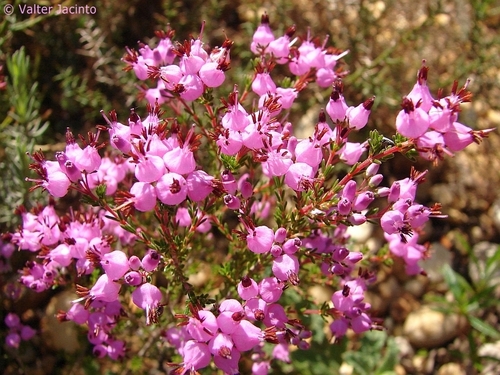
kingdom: Plantae
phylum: Tracheophyta
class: Magnoliopsida
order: Ericales
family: Ericaceae
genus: Erica
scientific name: Erica umbellata
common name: Dwarf spanish heath
